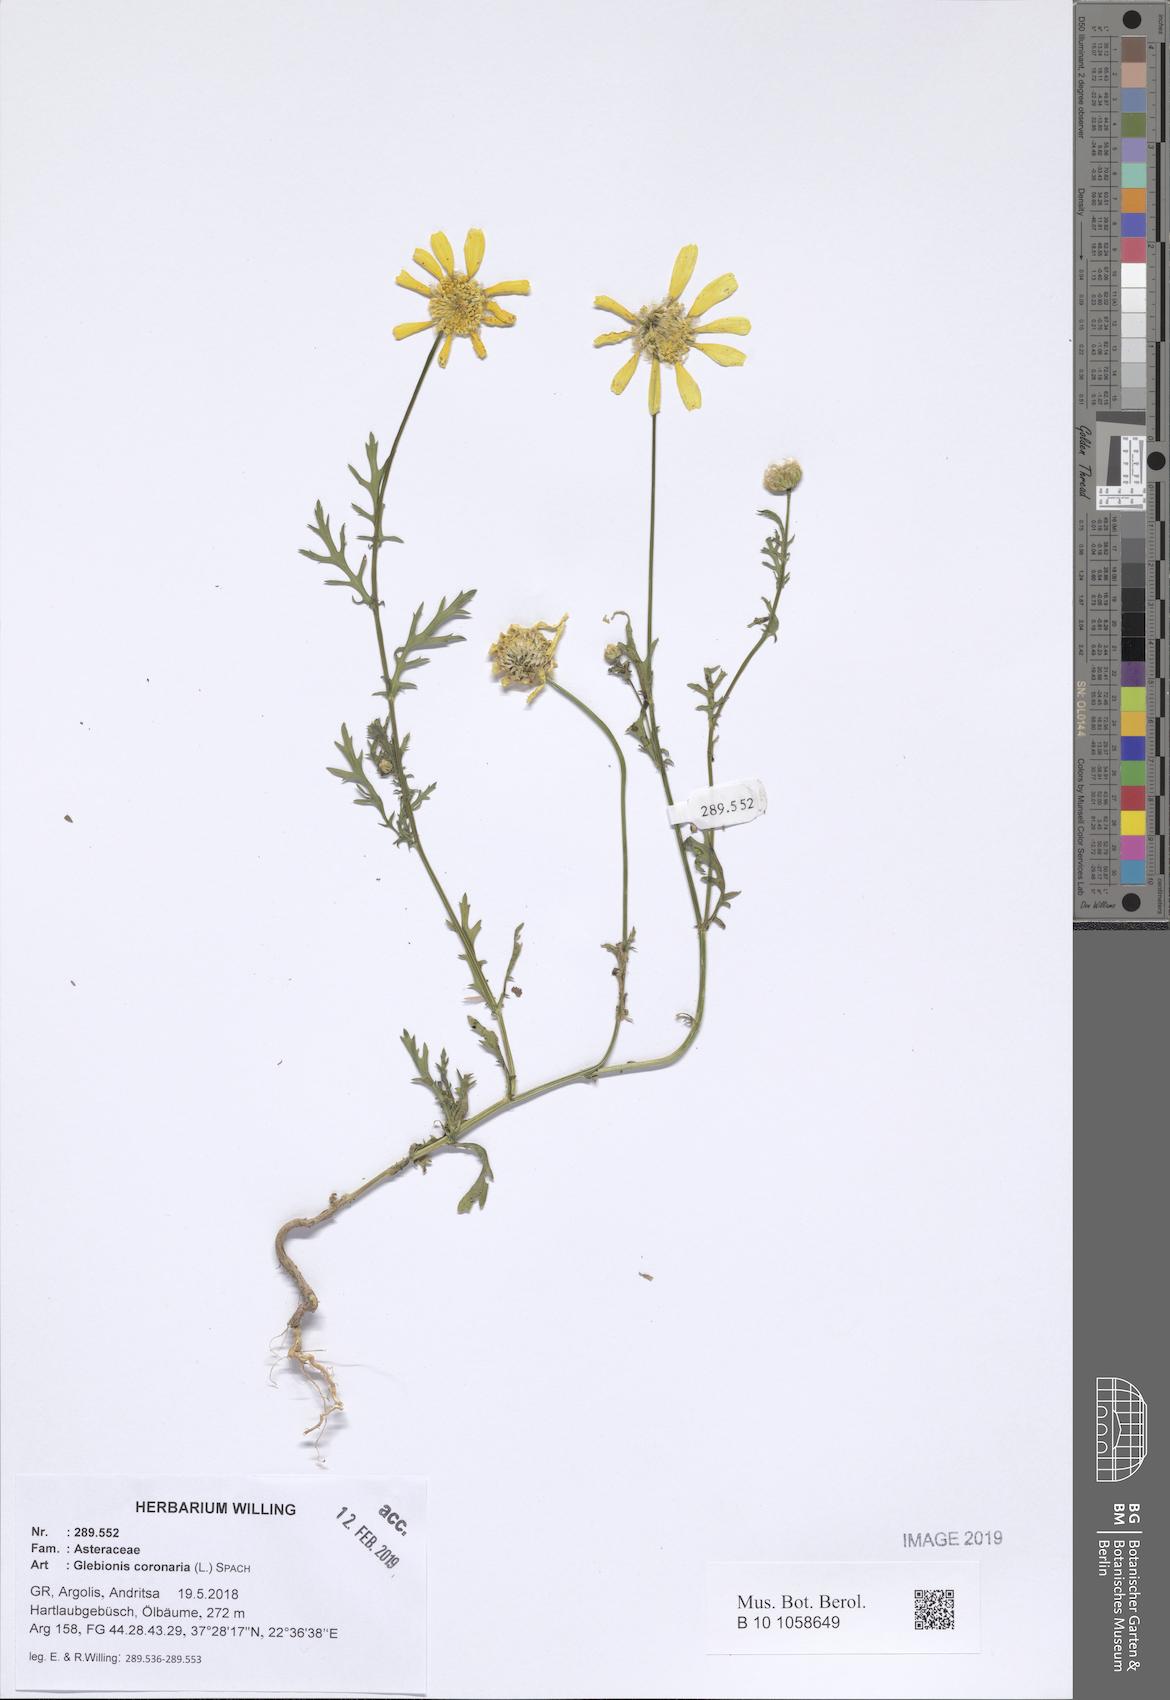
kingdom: Plantae
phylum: Tracheophyta
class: Magnoliopsida
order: Asterales
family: Asteraceae
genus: Glebionis
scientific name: Glebionis coronaria
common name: Crowndaisy
